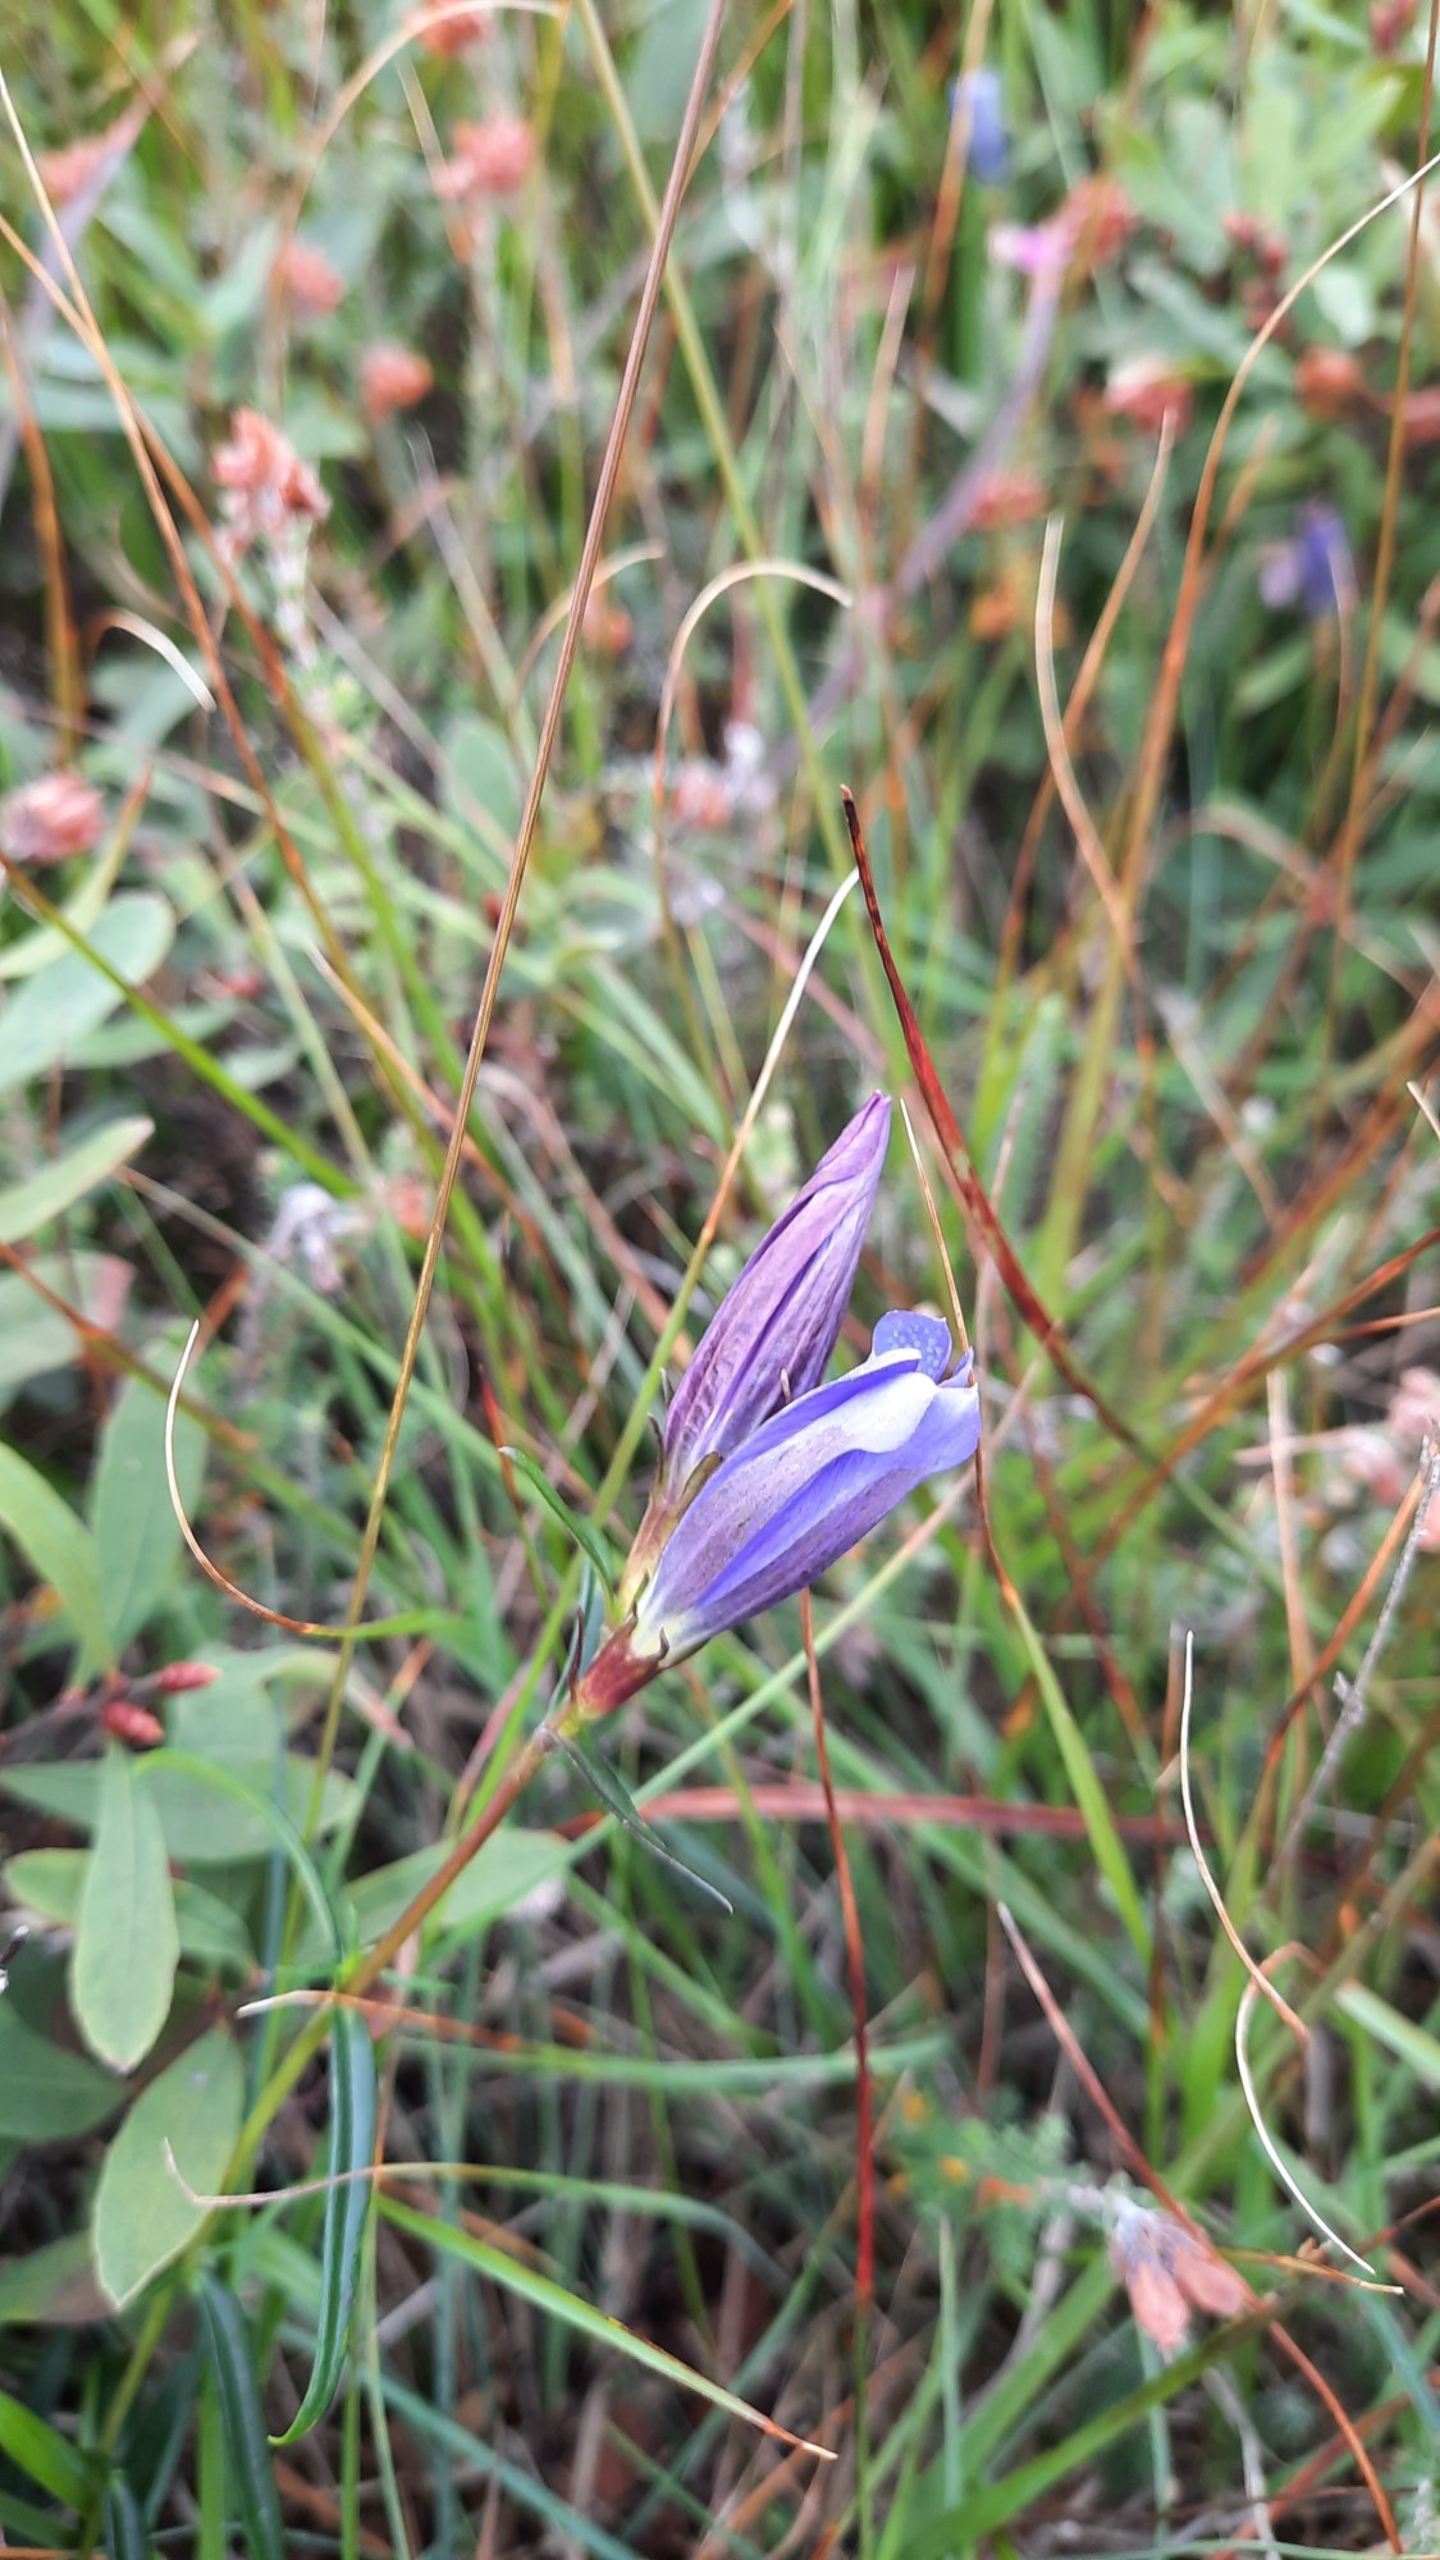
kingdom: Plantae
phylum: Tracheophyta
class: Magnoliopsida
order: Gentianales
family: Gentianaceae
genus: Gentiana
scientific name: Gentiana pneumonanthe
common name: Klokke-ensian
